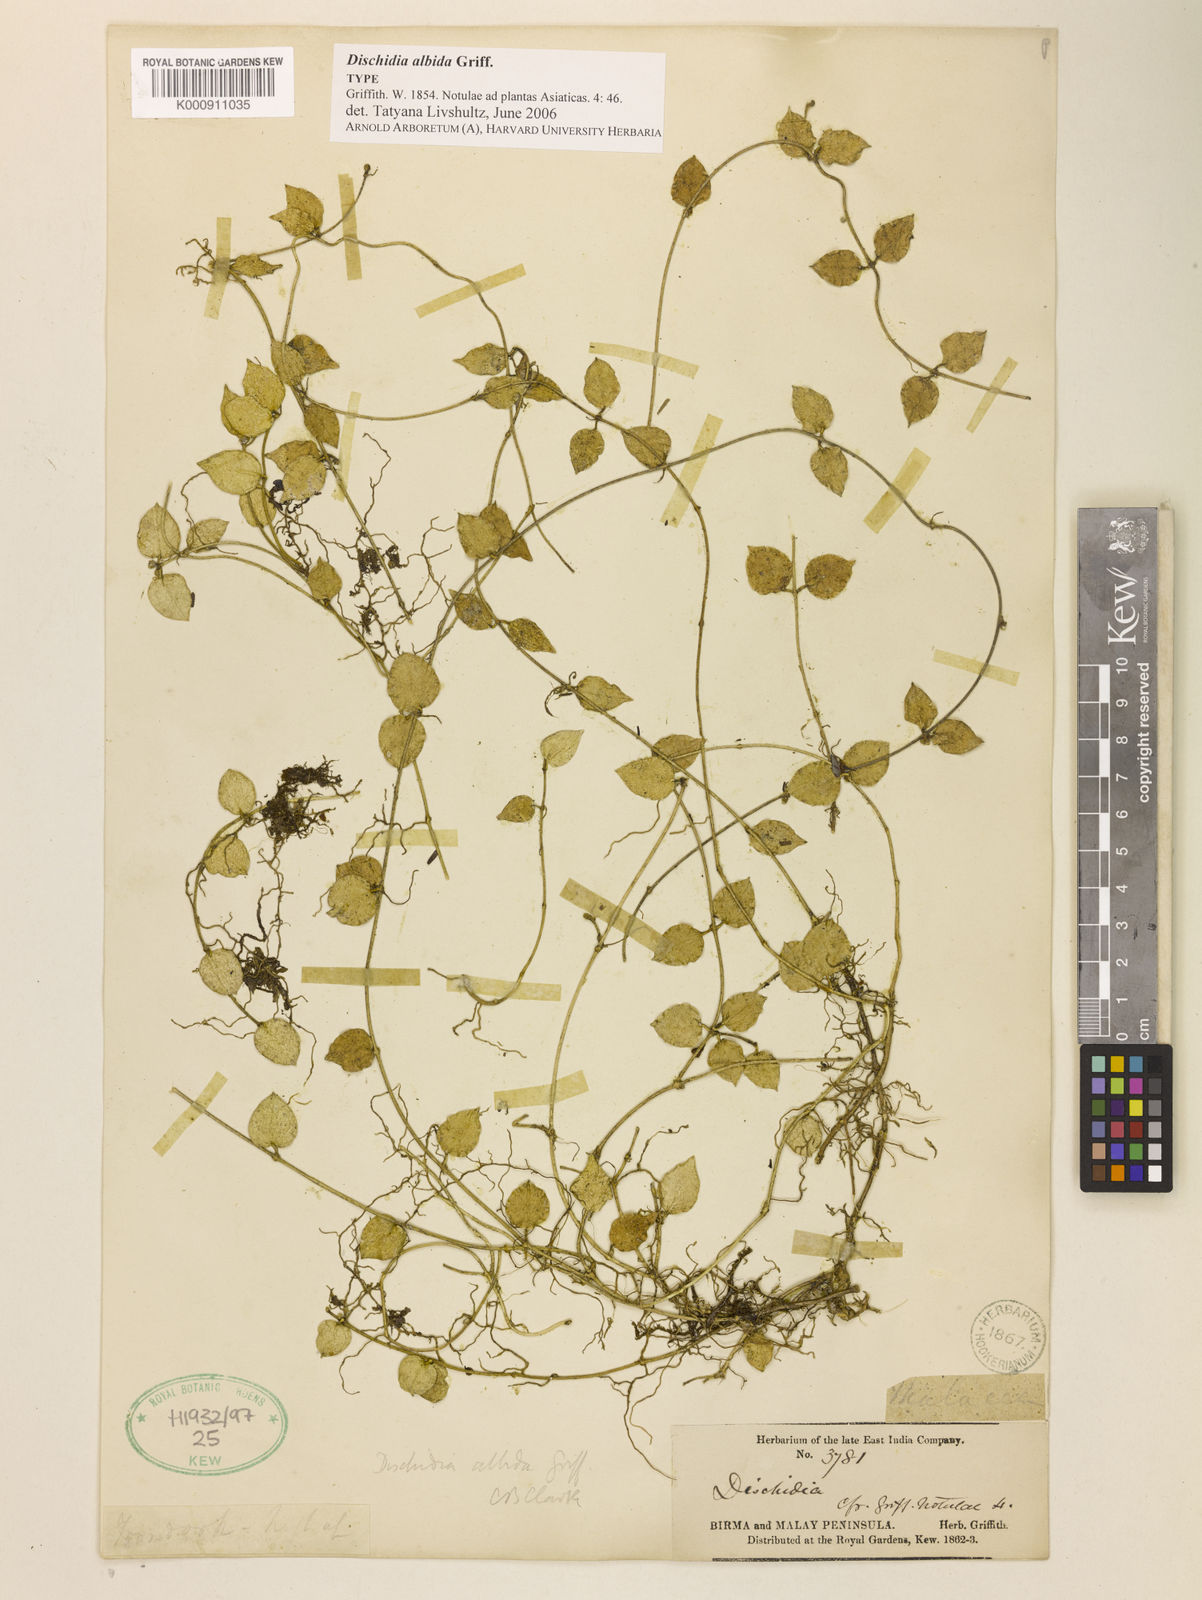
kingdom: Plantae
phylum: Tracheophyta
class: Magnoliopsida
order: Gentianales
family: Apocynaceae
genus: Dischidia
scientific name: Dischidia albida
